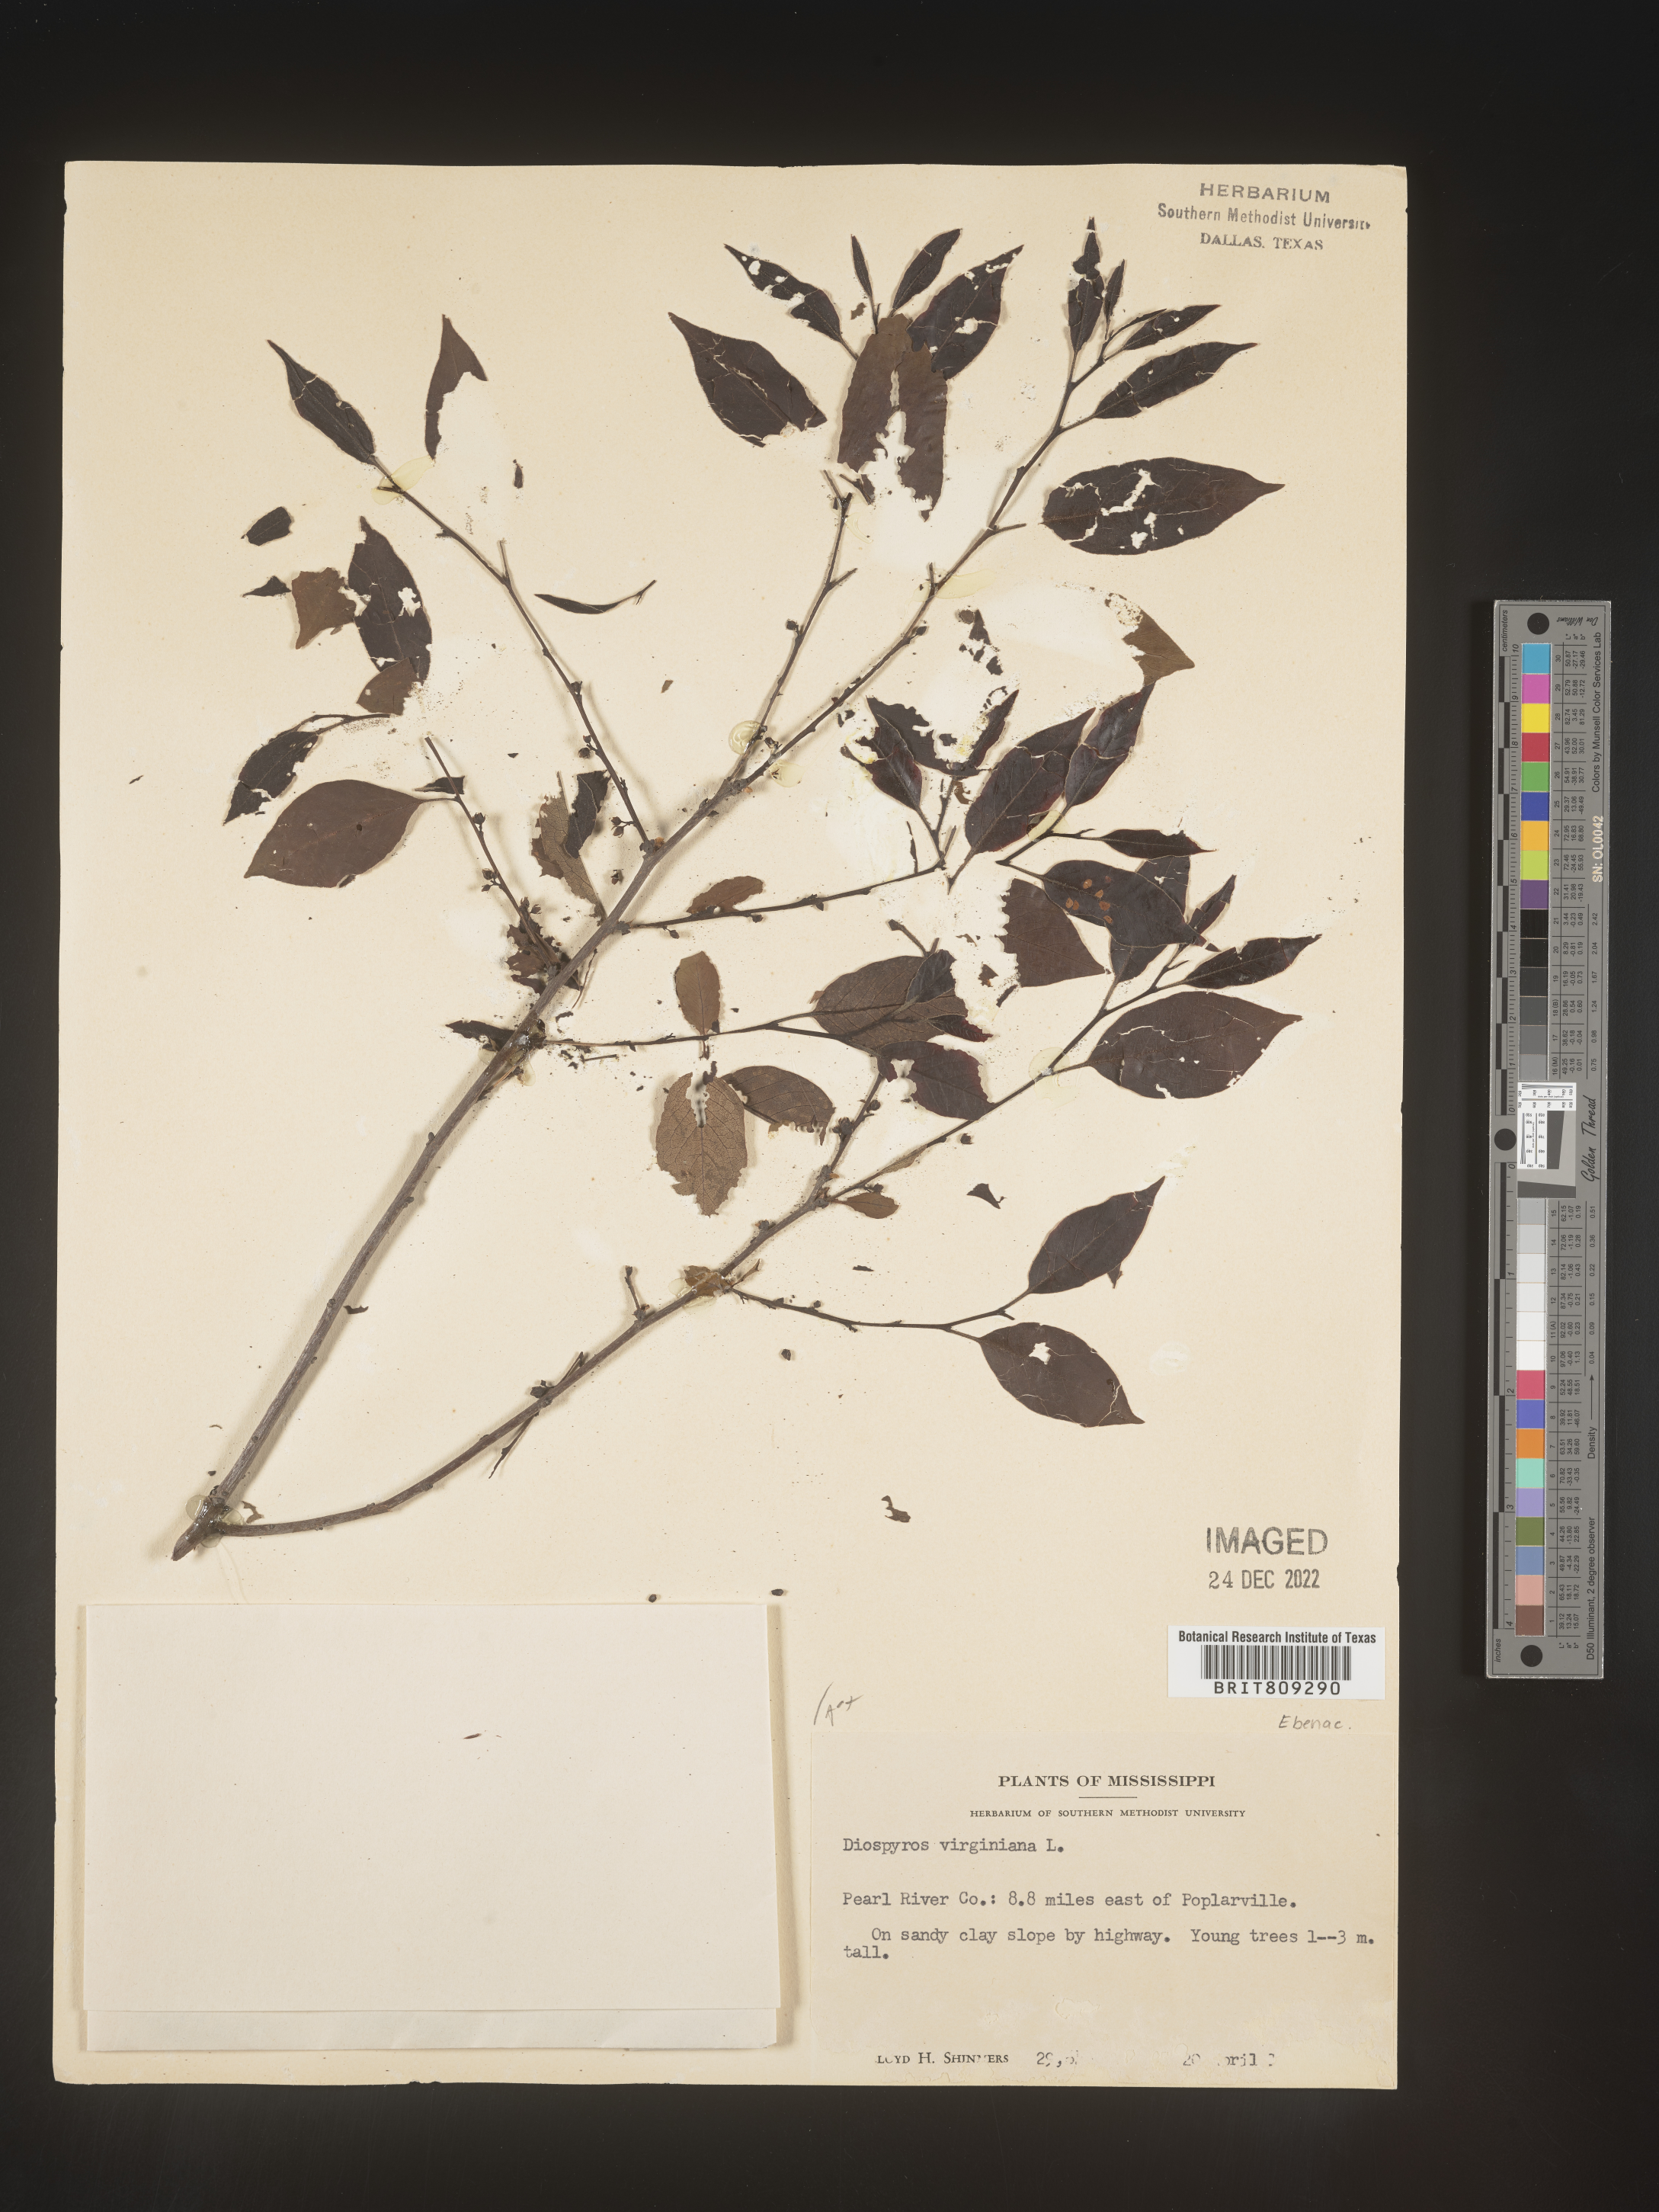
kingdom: Plantae
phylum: Tracheophyta
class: Magnoliopsida
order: Ericales
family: Ebenaceae
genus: Diospyros
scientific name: Diospyros virginiana
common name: Persimmon
